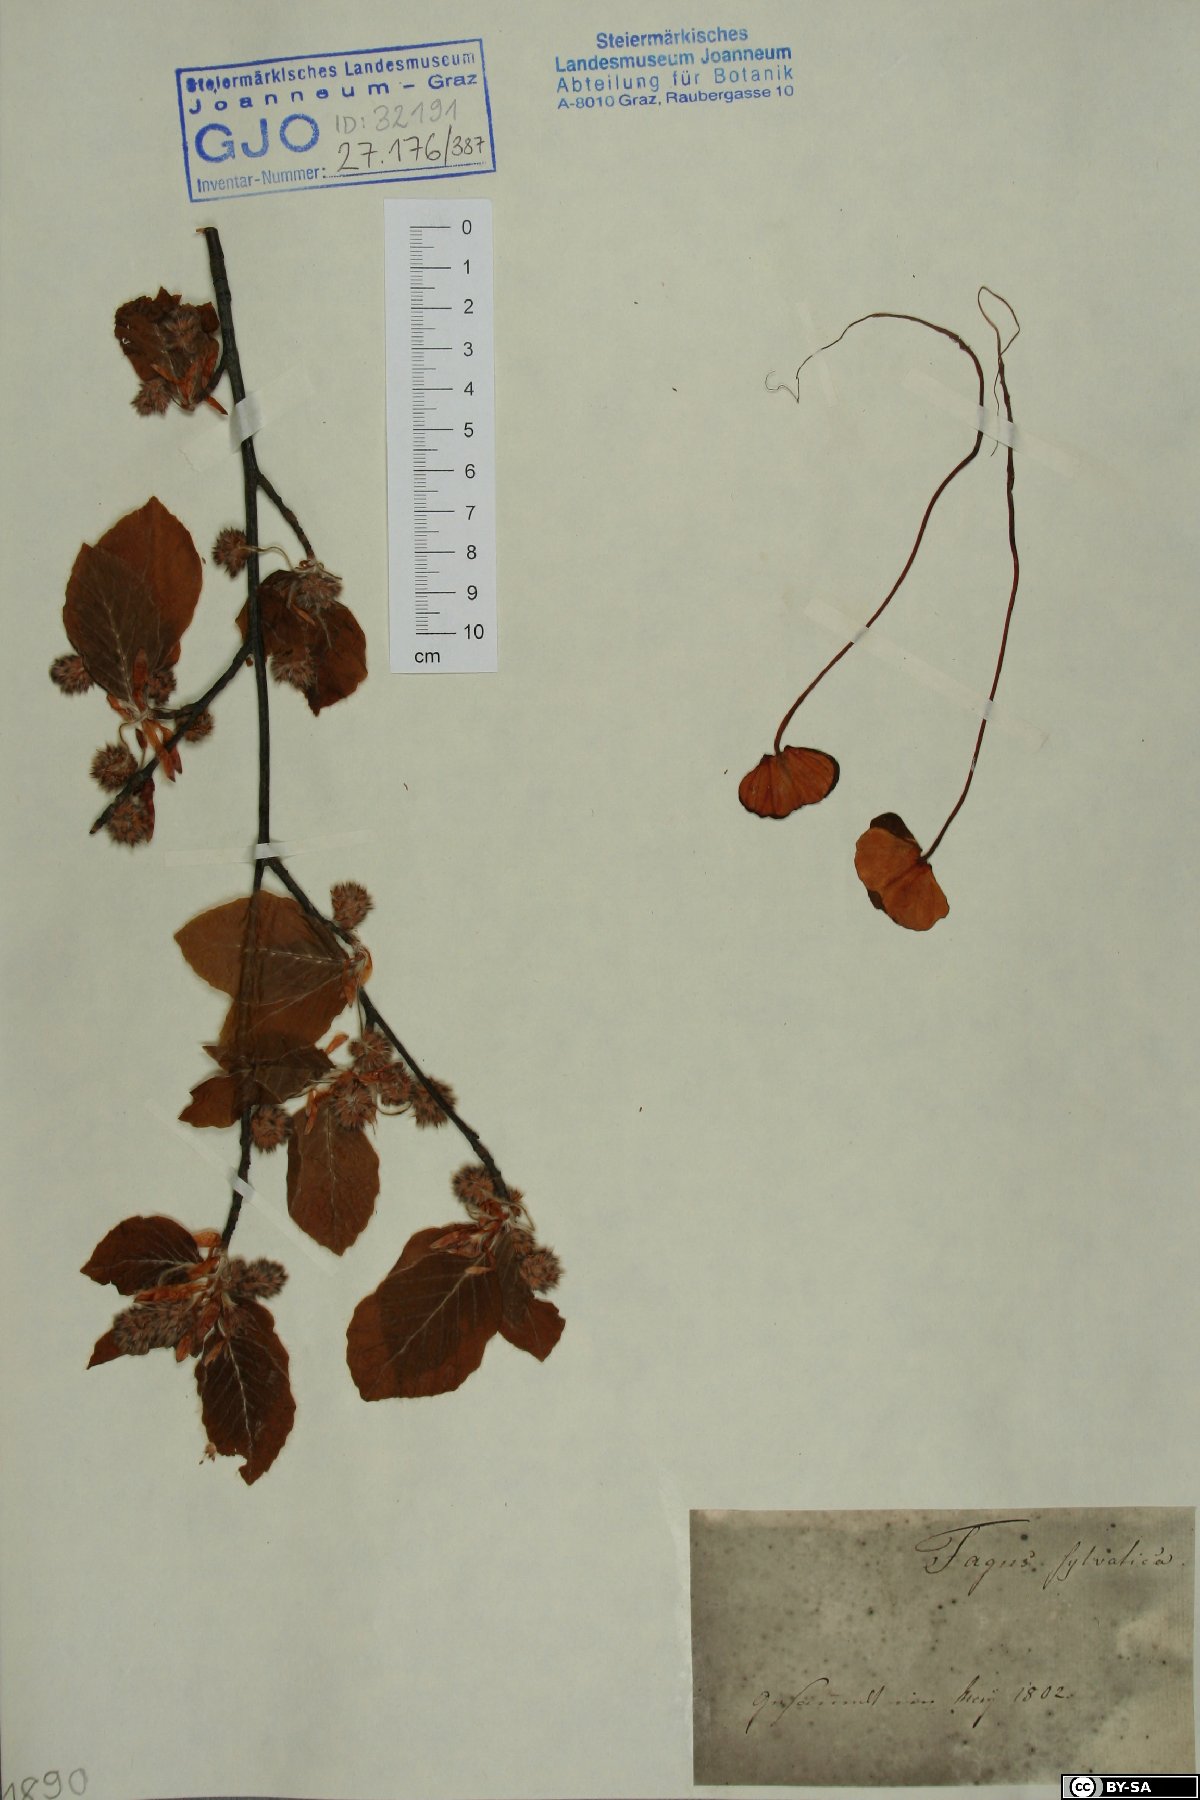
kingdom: Plantae
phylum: Tracheophyta
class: Magnoliopsida
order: Fagales
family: Fagaceae
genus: Fagus
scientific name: Fagus sylvatica
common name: Beech
